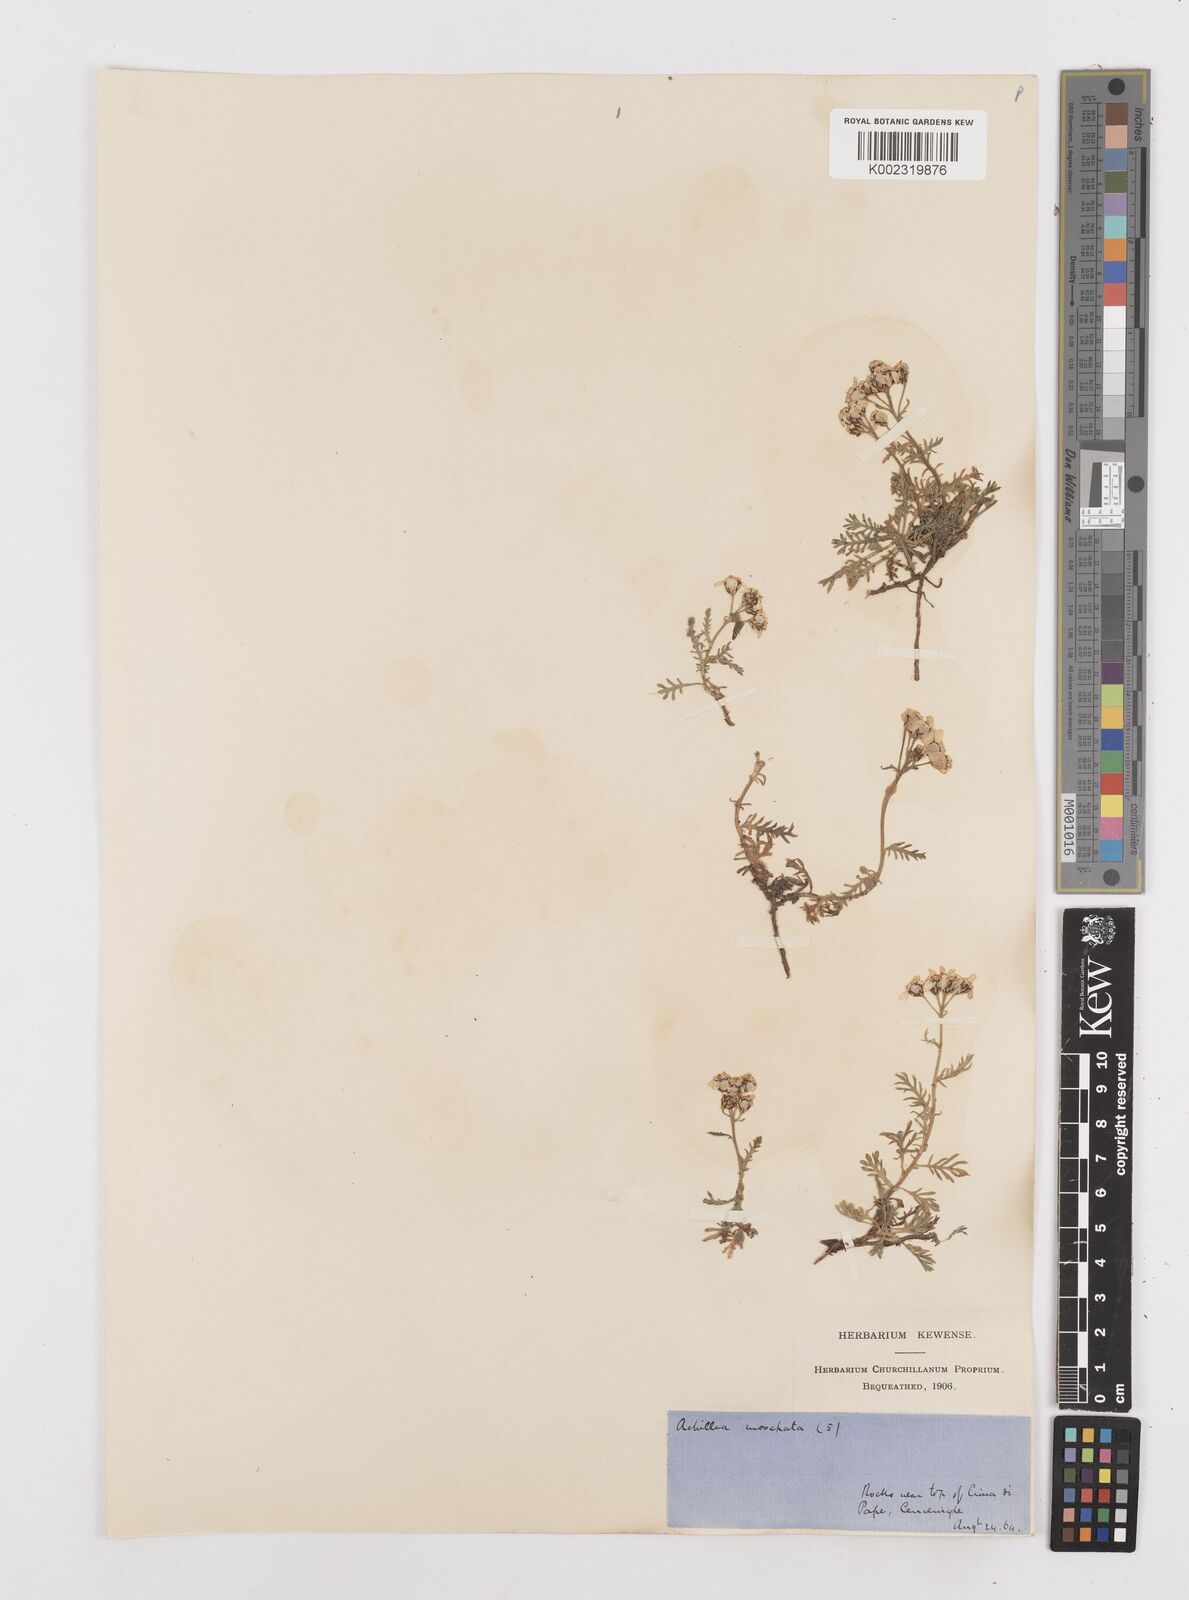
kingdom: Plantae
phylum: Tracheophyta
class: Magnoliopsida
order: Asterales
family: Asteraceae
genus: Achillea
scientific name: Achillea erba-rotta
